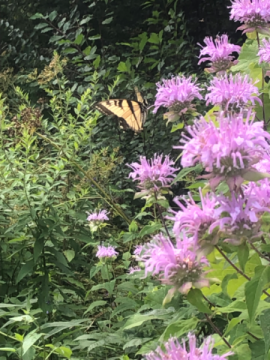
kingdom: Animalia
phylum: Arthropoda
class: Insecta
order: Lepidoptera
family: Papilionidae
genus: Pterourus
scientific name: Pterourus glaucus
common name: Eastern Tiger Swallowtail
